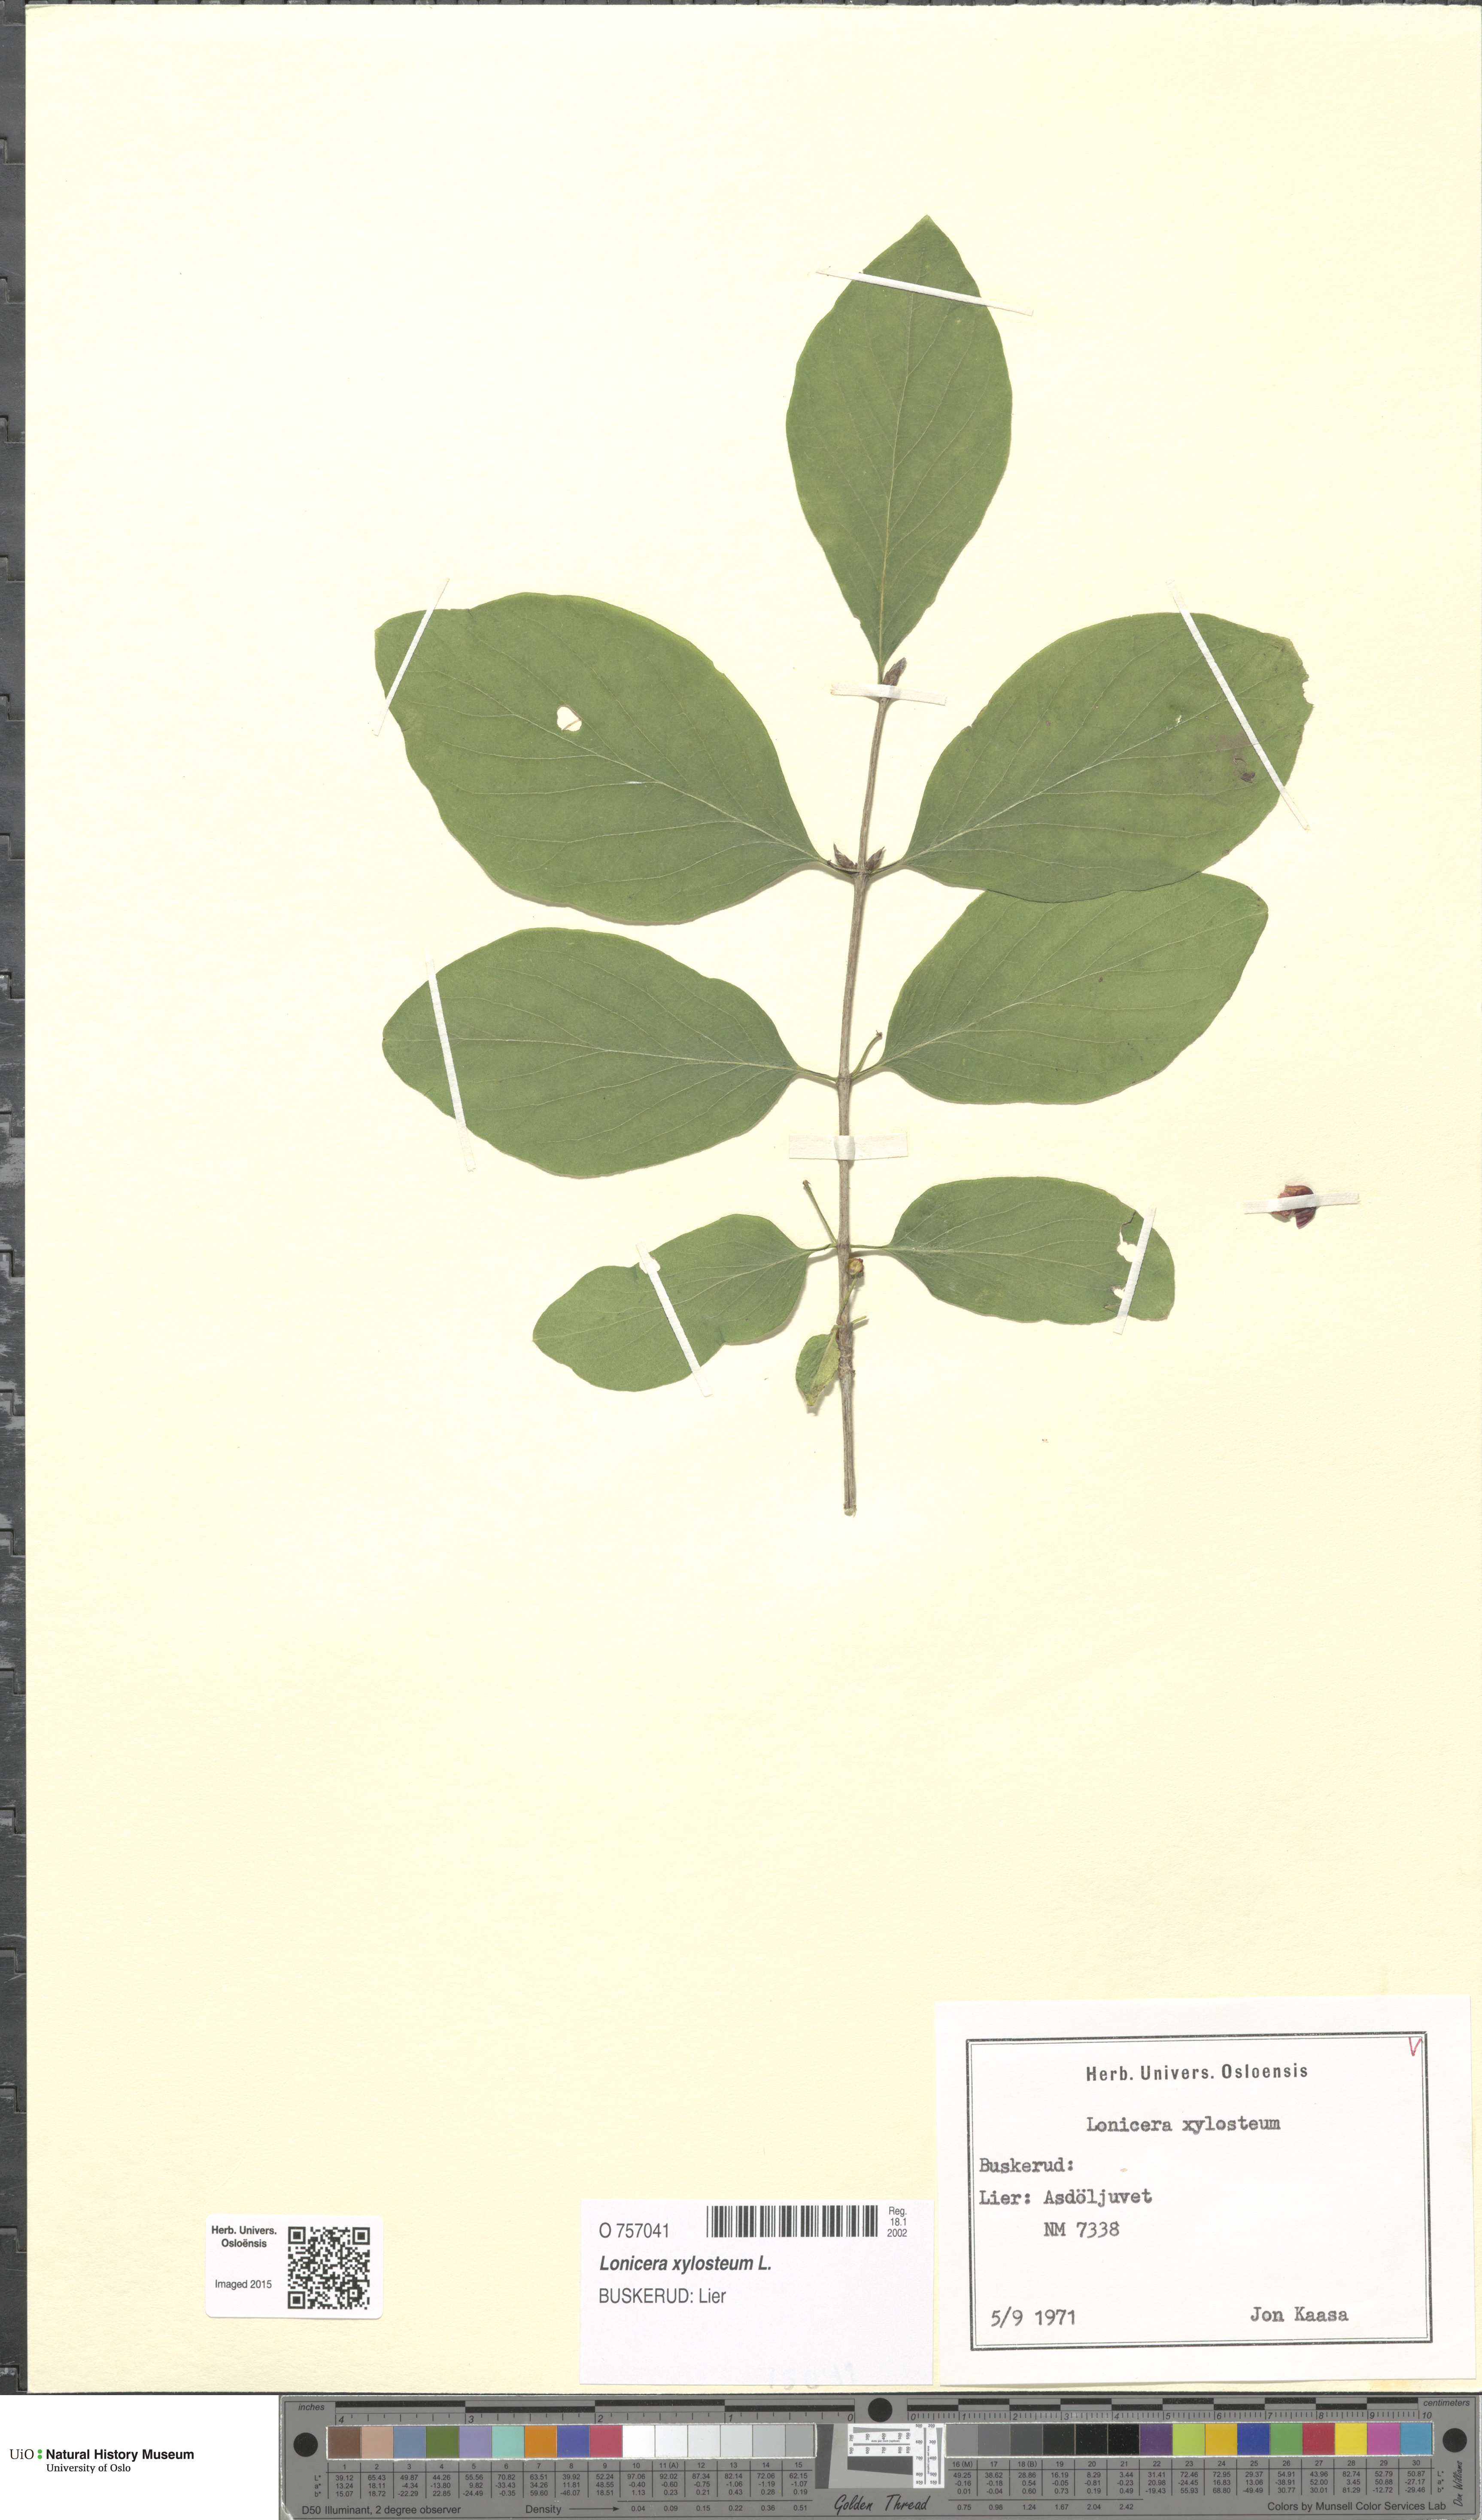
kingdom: Plantae
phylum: Tracheophyta
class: Magnoliopsida
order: Dipsacales
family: Caprifoliaceae
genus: Lonicera
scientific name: Lonicera xylosteum
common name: Fly honeysuckle
